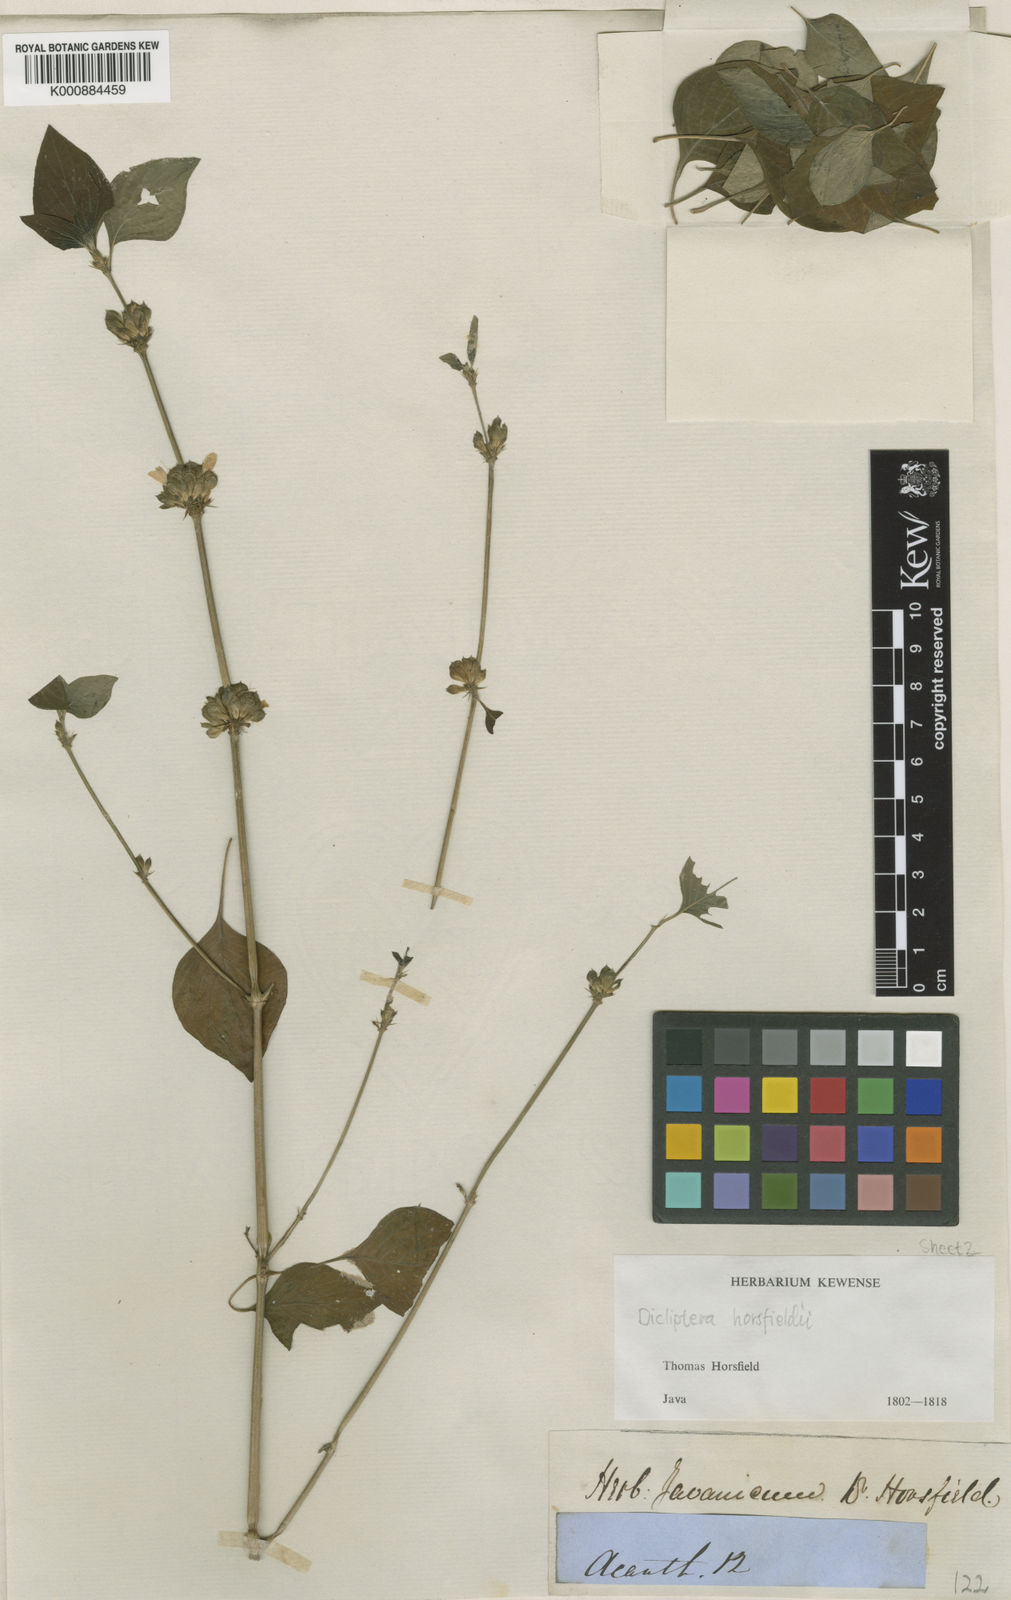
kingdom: Plantae
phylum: Tracheophyta
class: Magnoliopsida
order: Lamiales
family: Acanthaceae
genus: Dicliptera
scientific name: Dicliptera
